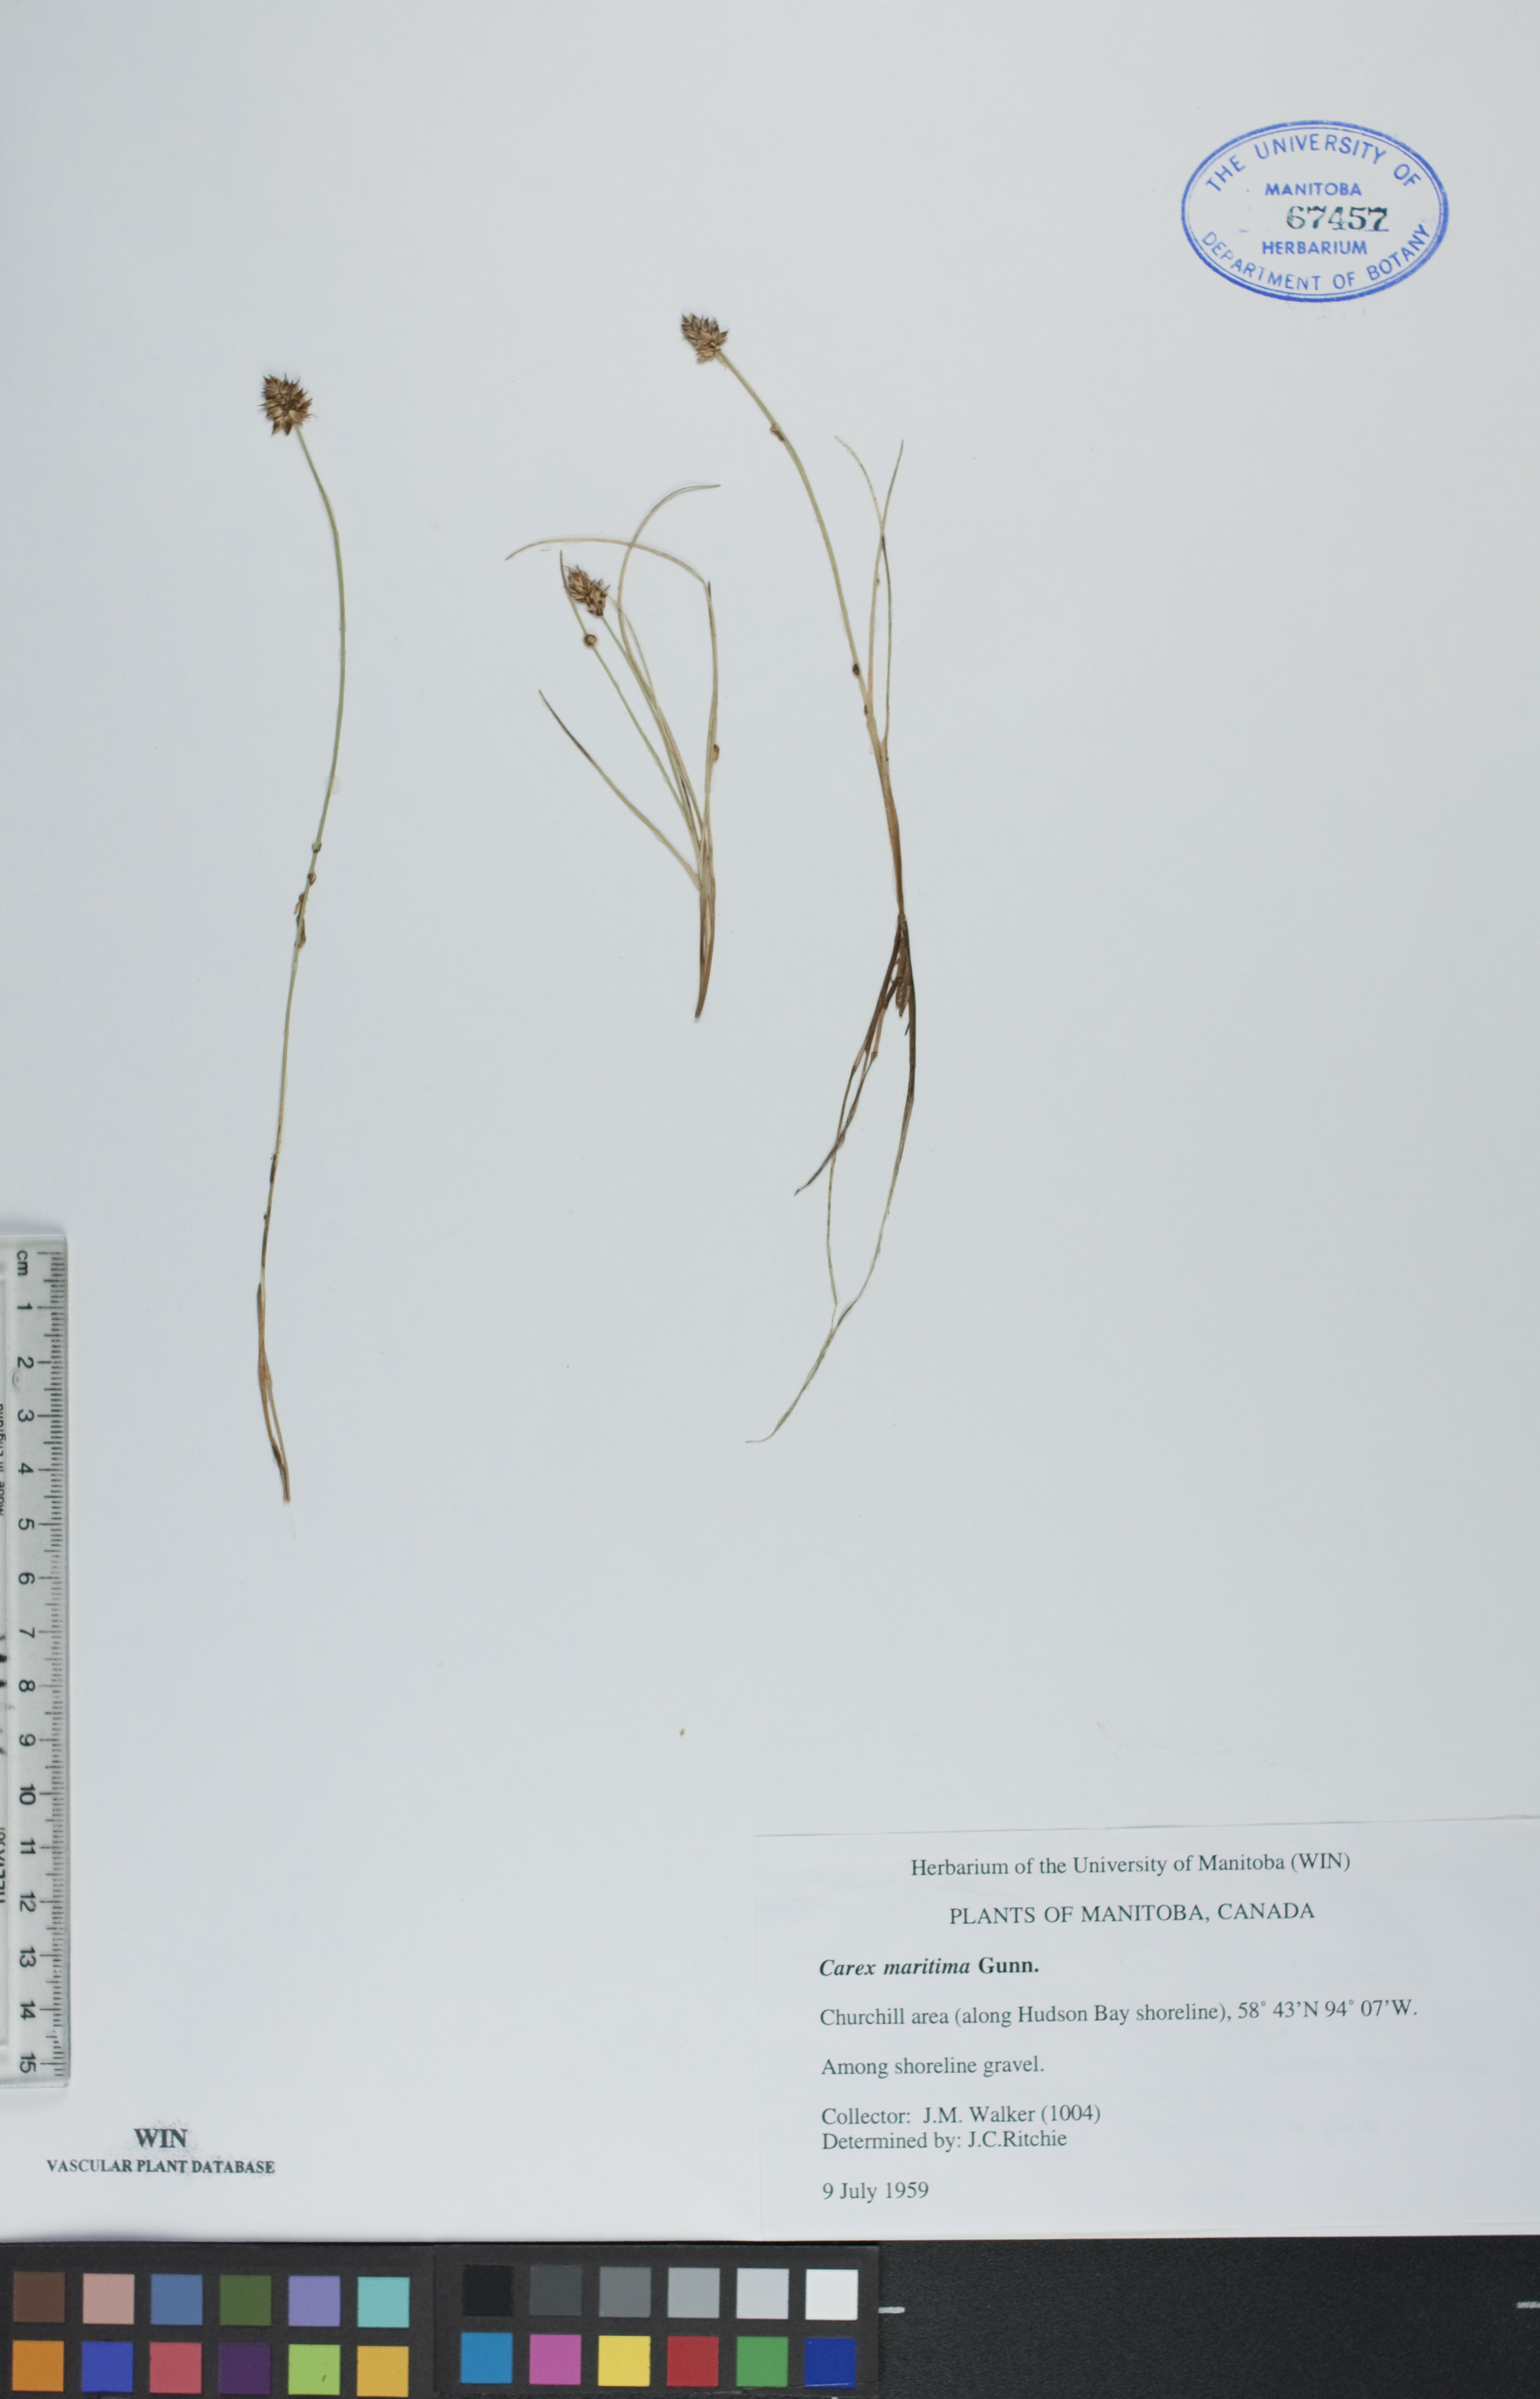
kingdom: Plantae
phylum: Tracheophyta
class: Liliopsida
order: Poales
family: Cyperaceae
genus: Carex
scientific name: Carex maritima
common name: Curved sedge
